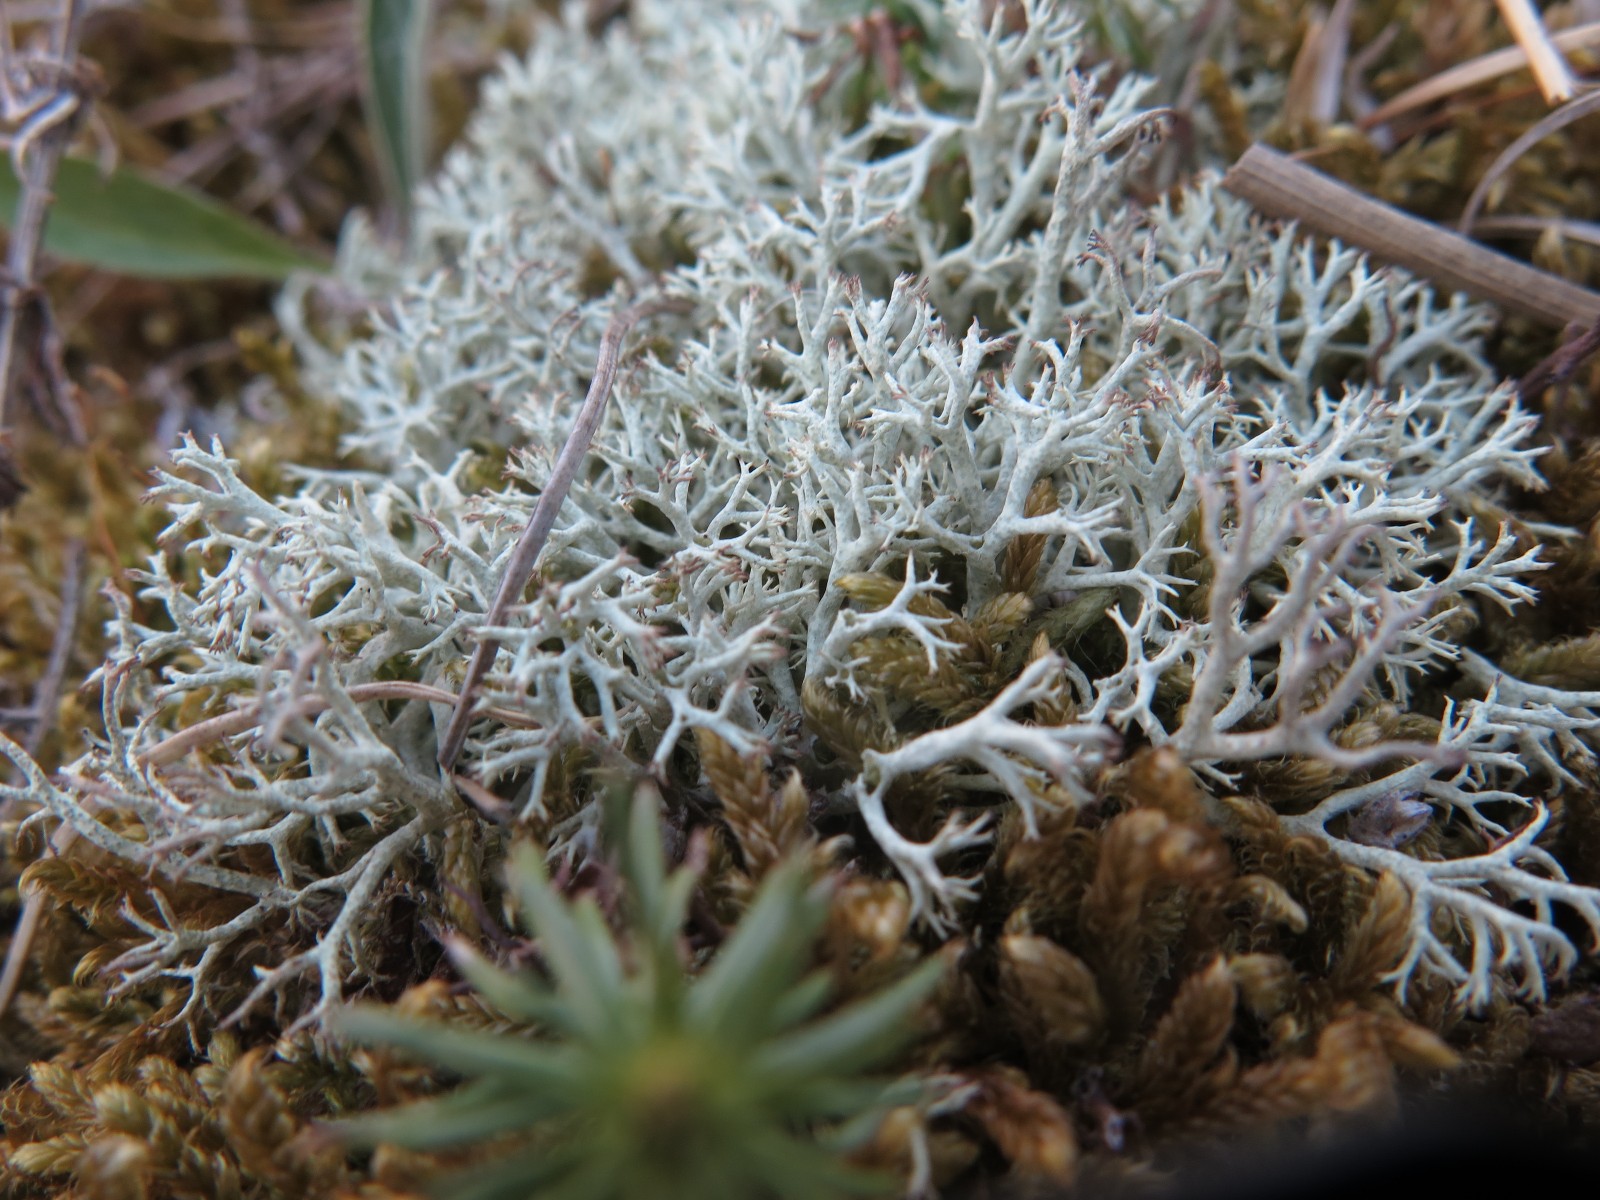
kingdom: Fungi
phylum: Ascomycota
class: Lecanoromycetes
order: Lecanorales
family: Cladoniaceae
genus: Cladonia
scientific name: Cladonia portentosa
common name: hede-rensdyrlav
